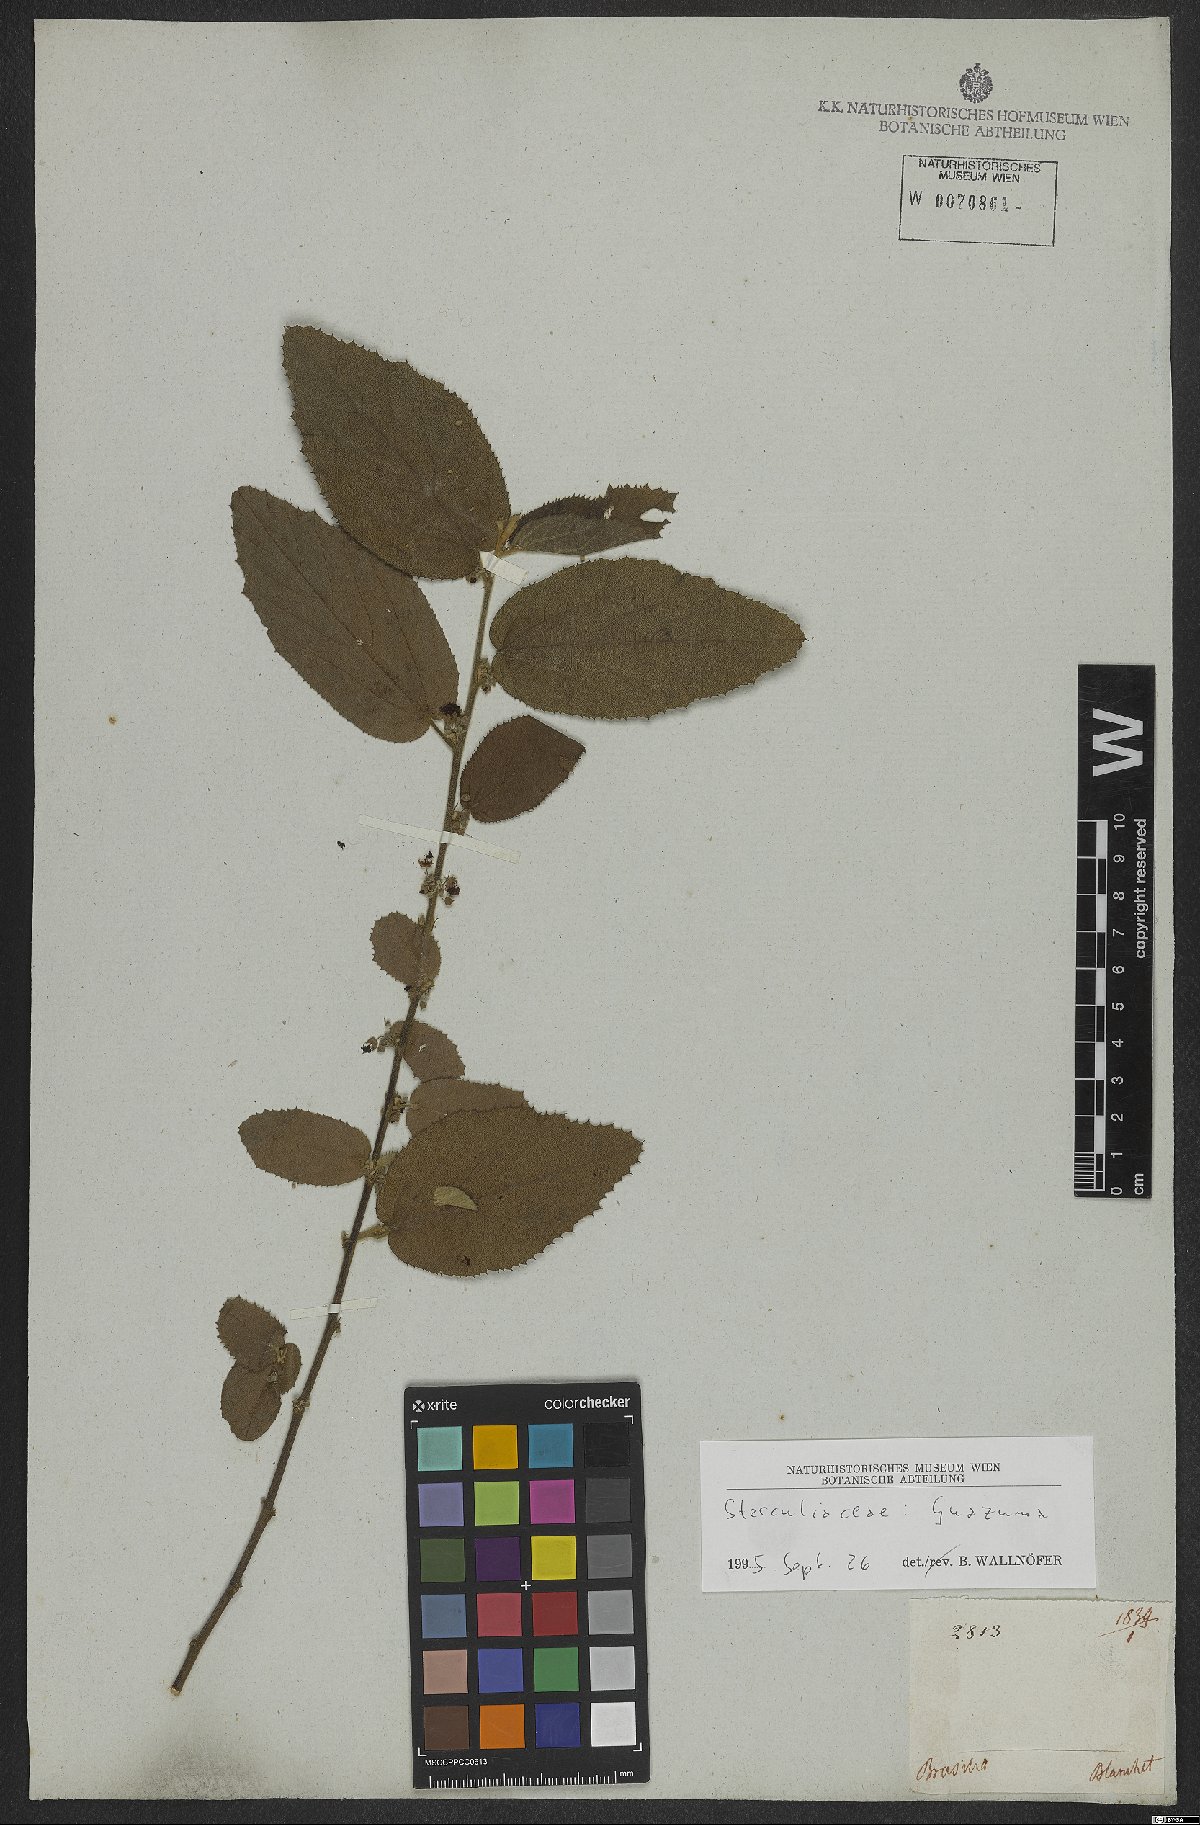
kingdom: Plantae
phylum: Tracheophyta
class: Magnoliopsida
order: Malvales
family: Malvaceae
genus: Guazuma
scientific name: Guazuma
